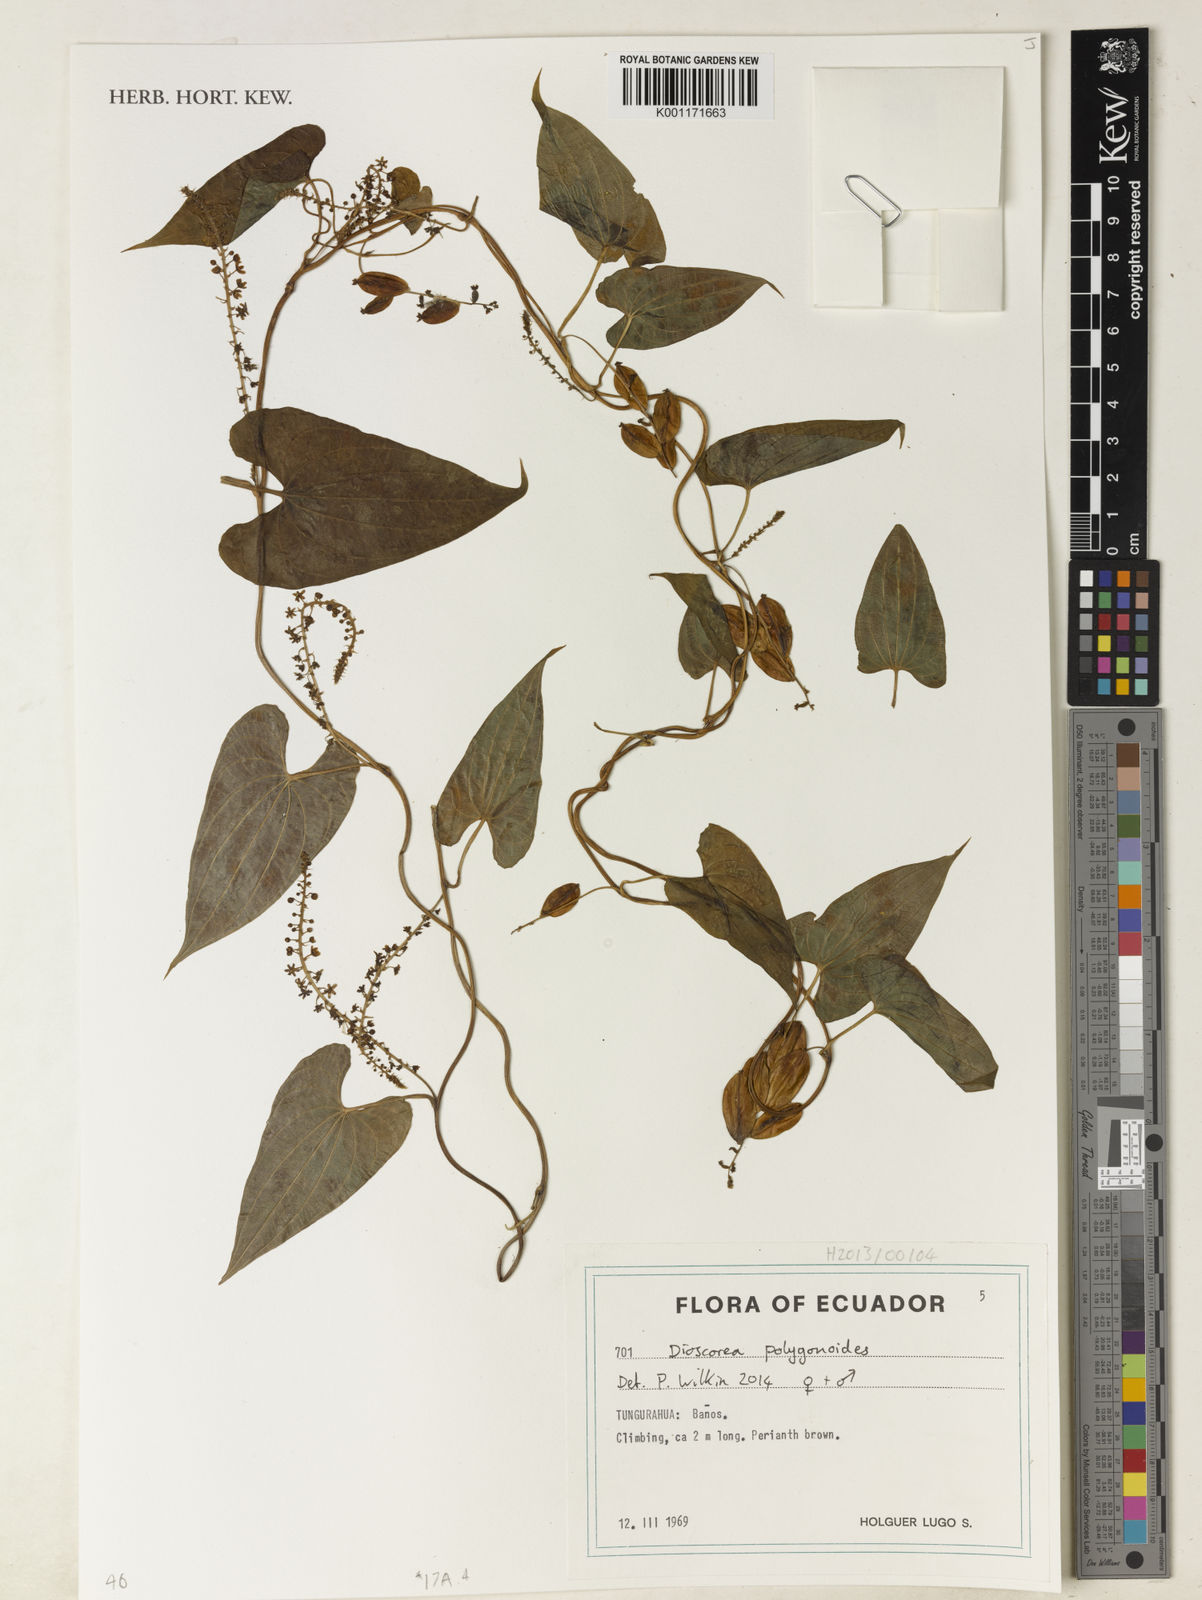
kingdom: Plantae
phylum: Tracheophyta
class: Liliopsida
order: Dioscoreales
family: Dioscoreaceae
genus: Dioscorea
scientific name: Dioscorea piperifolia
